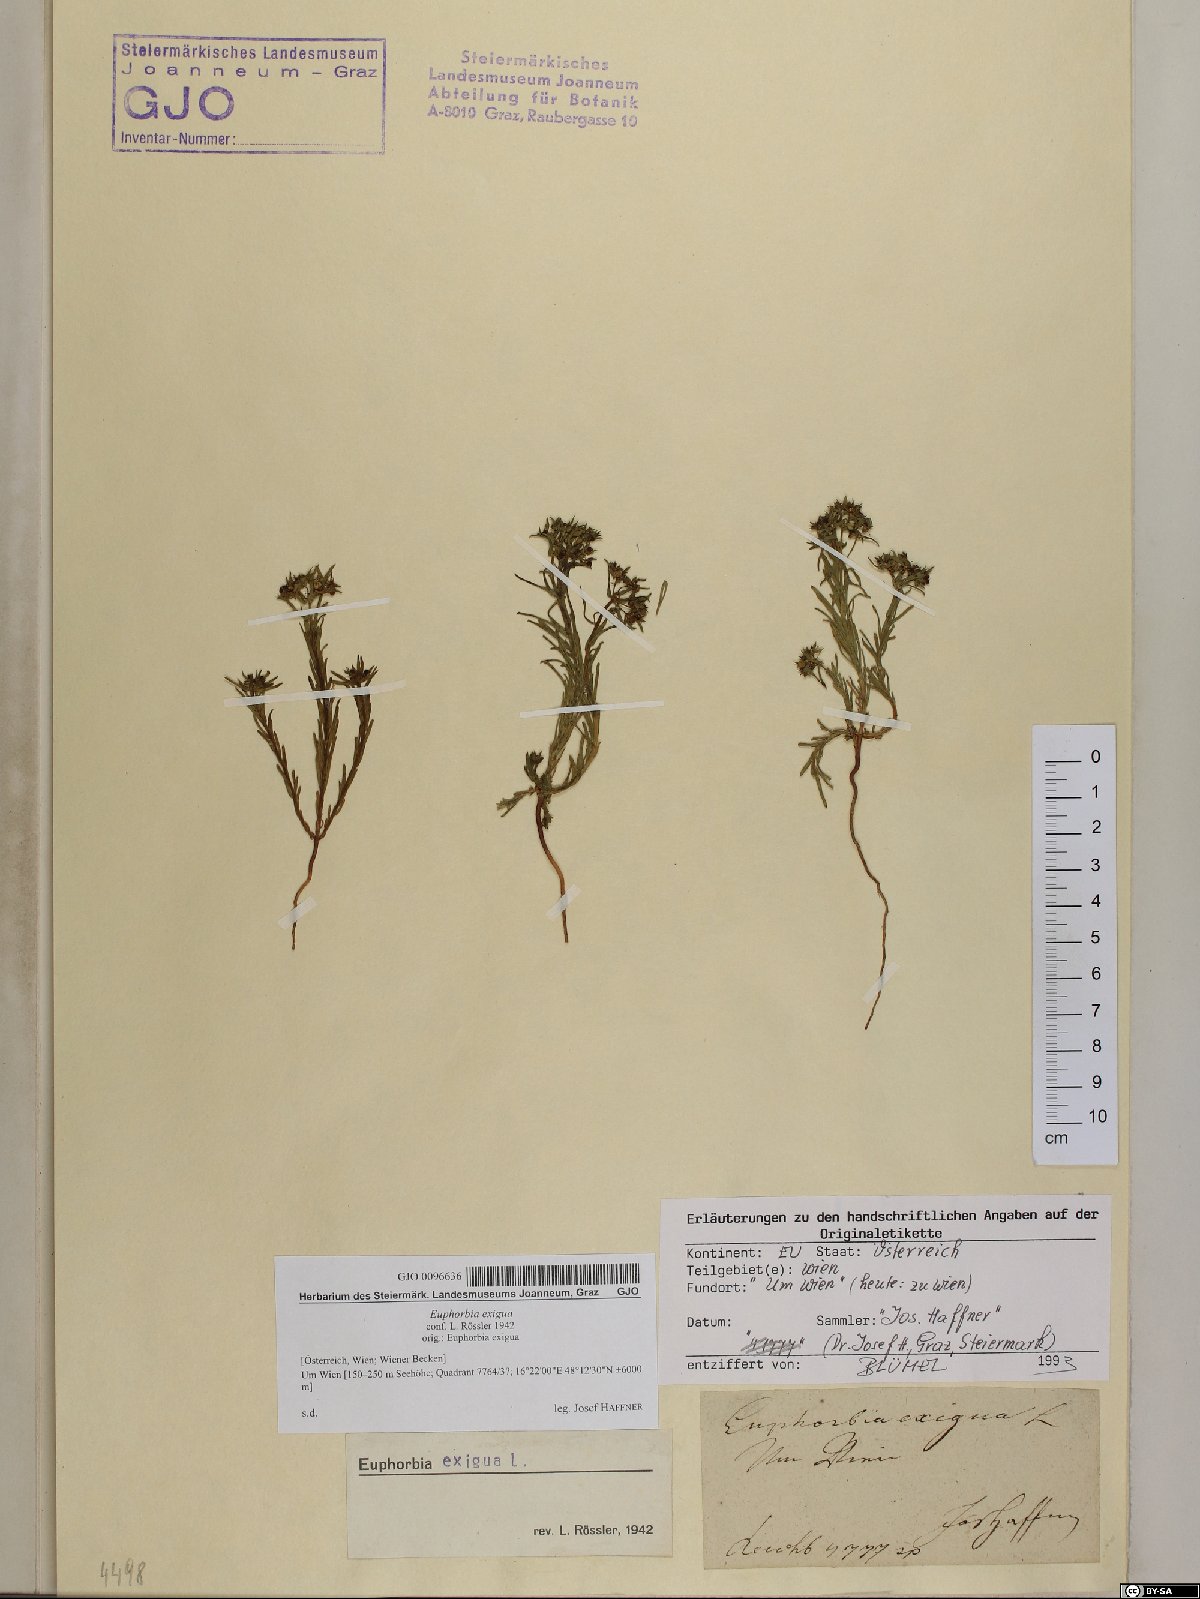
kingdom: Plantae
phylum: Tracheophyta
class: Magnoliopsida
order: Malpighiales
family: Euphorbiaceae
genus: Euphorbia
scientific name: Euphorbia exigua
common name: Dwarf spurge
